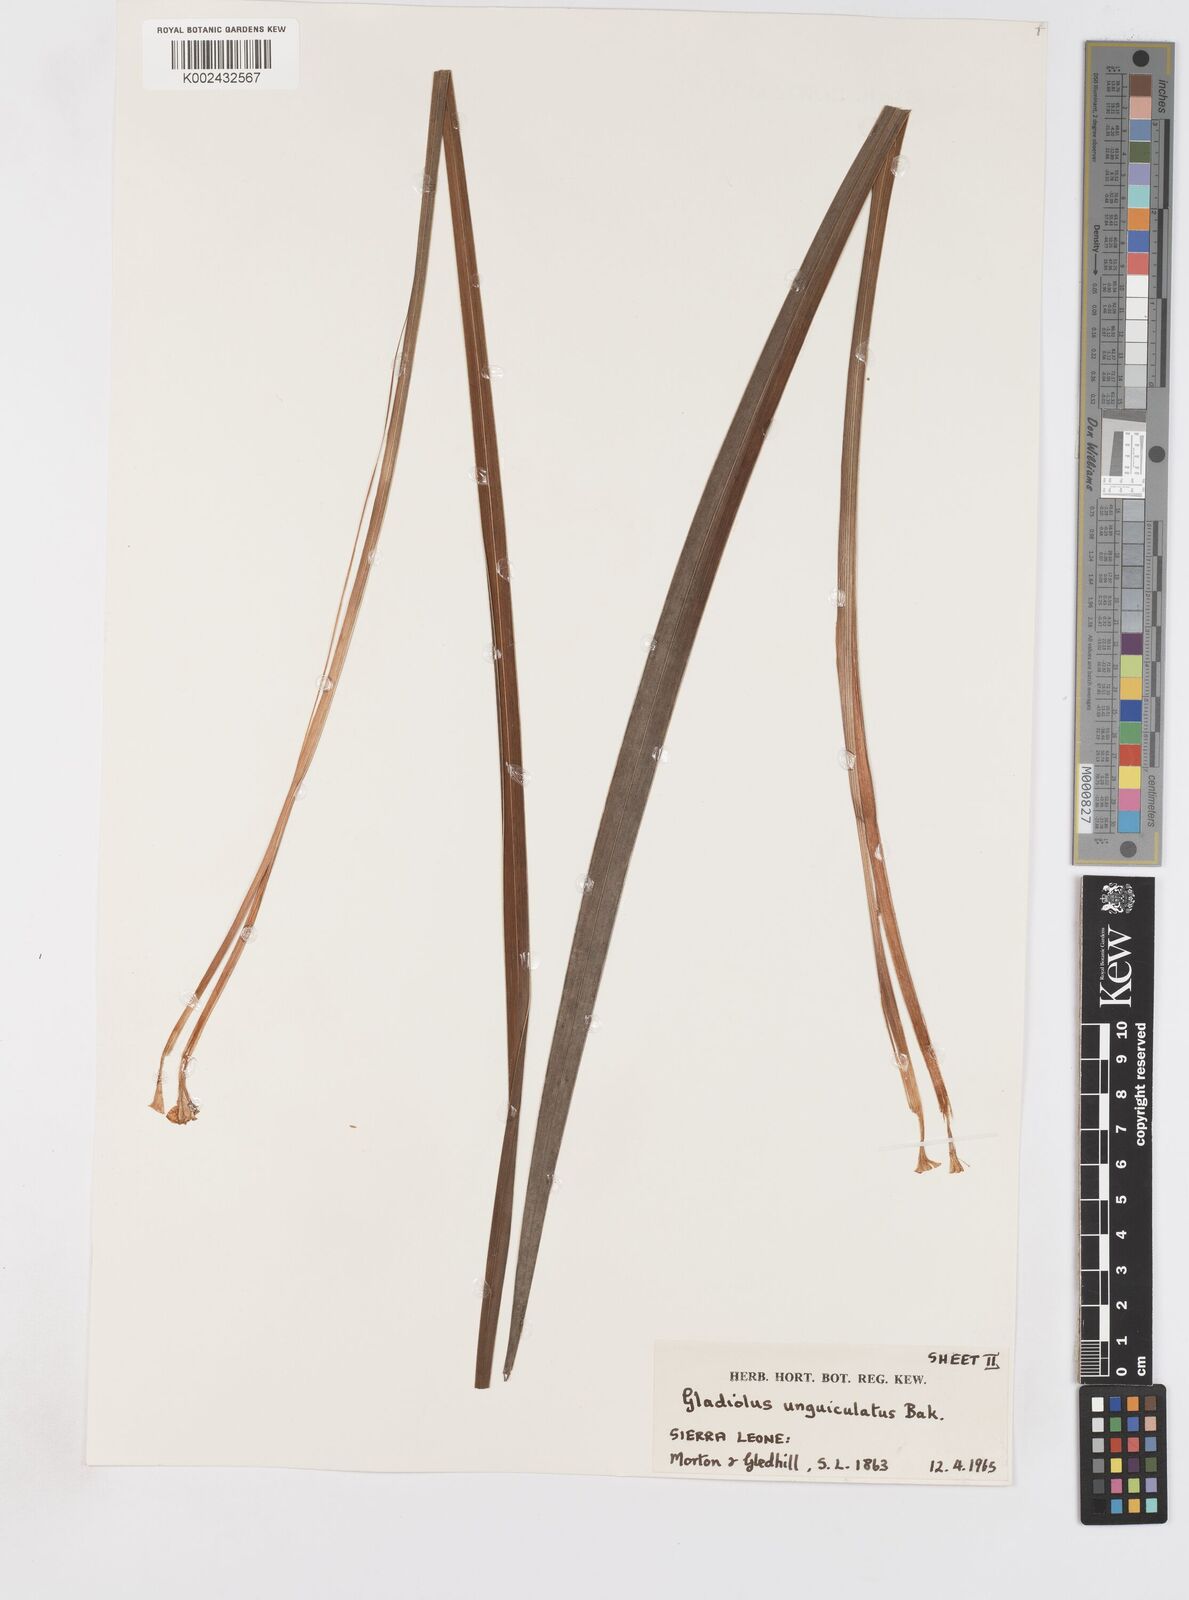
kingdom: Plantae
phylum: Tracheophyta
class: Liliopsida
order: Asparagales
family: Iridaceae
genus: Gladiolus
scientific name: Gladiolus unguiculatus
